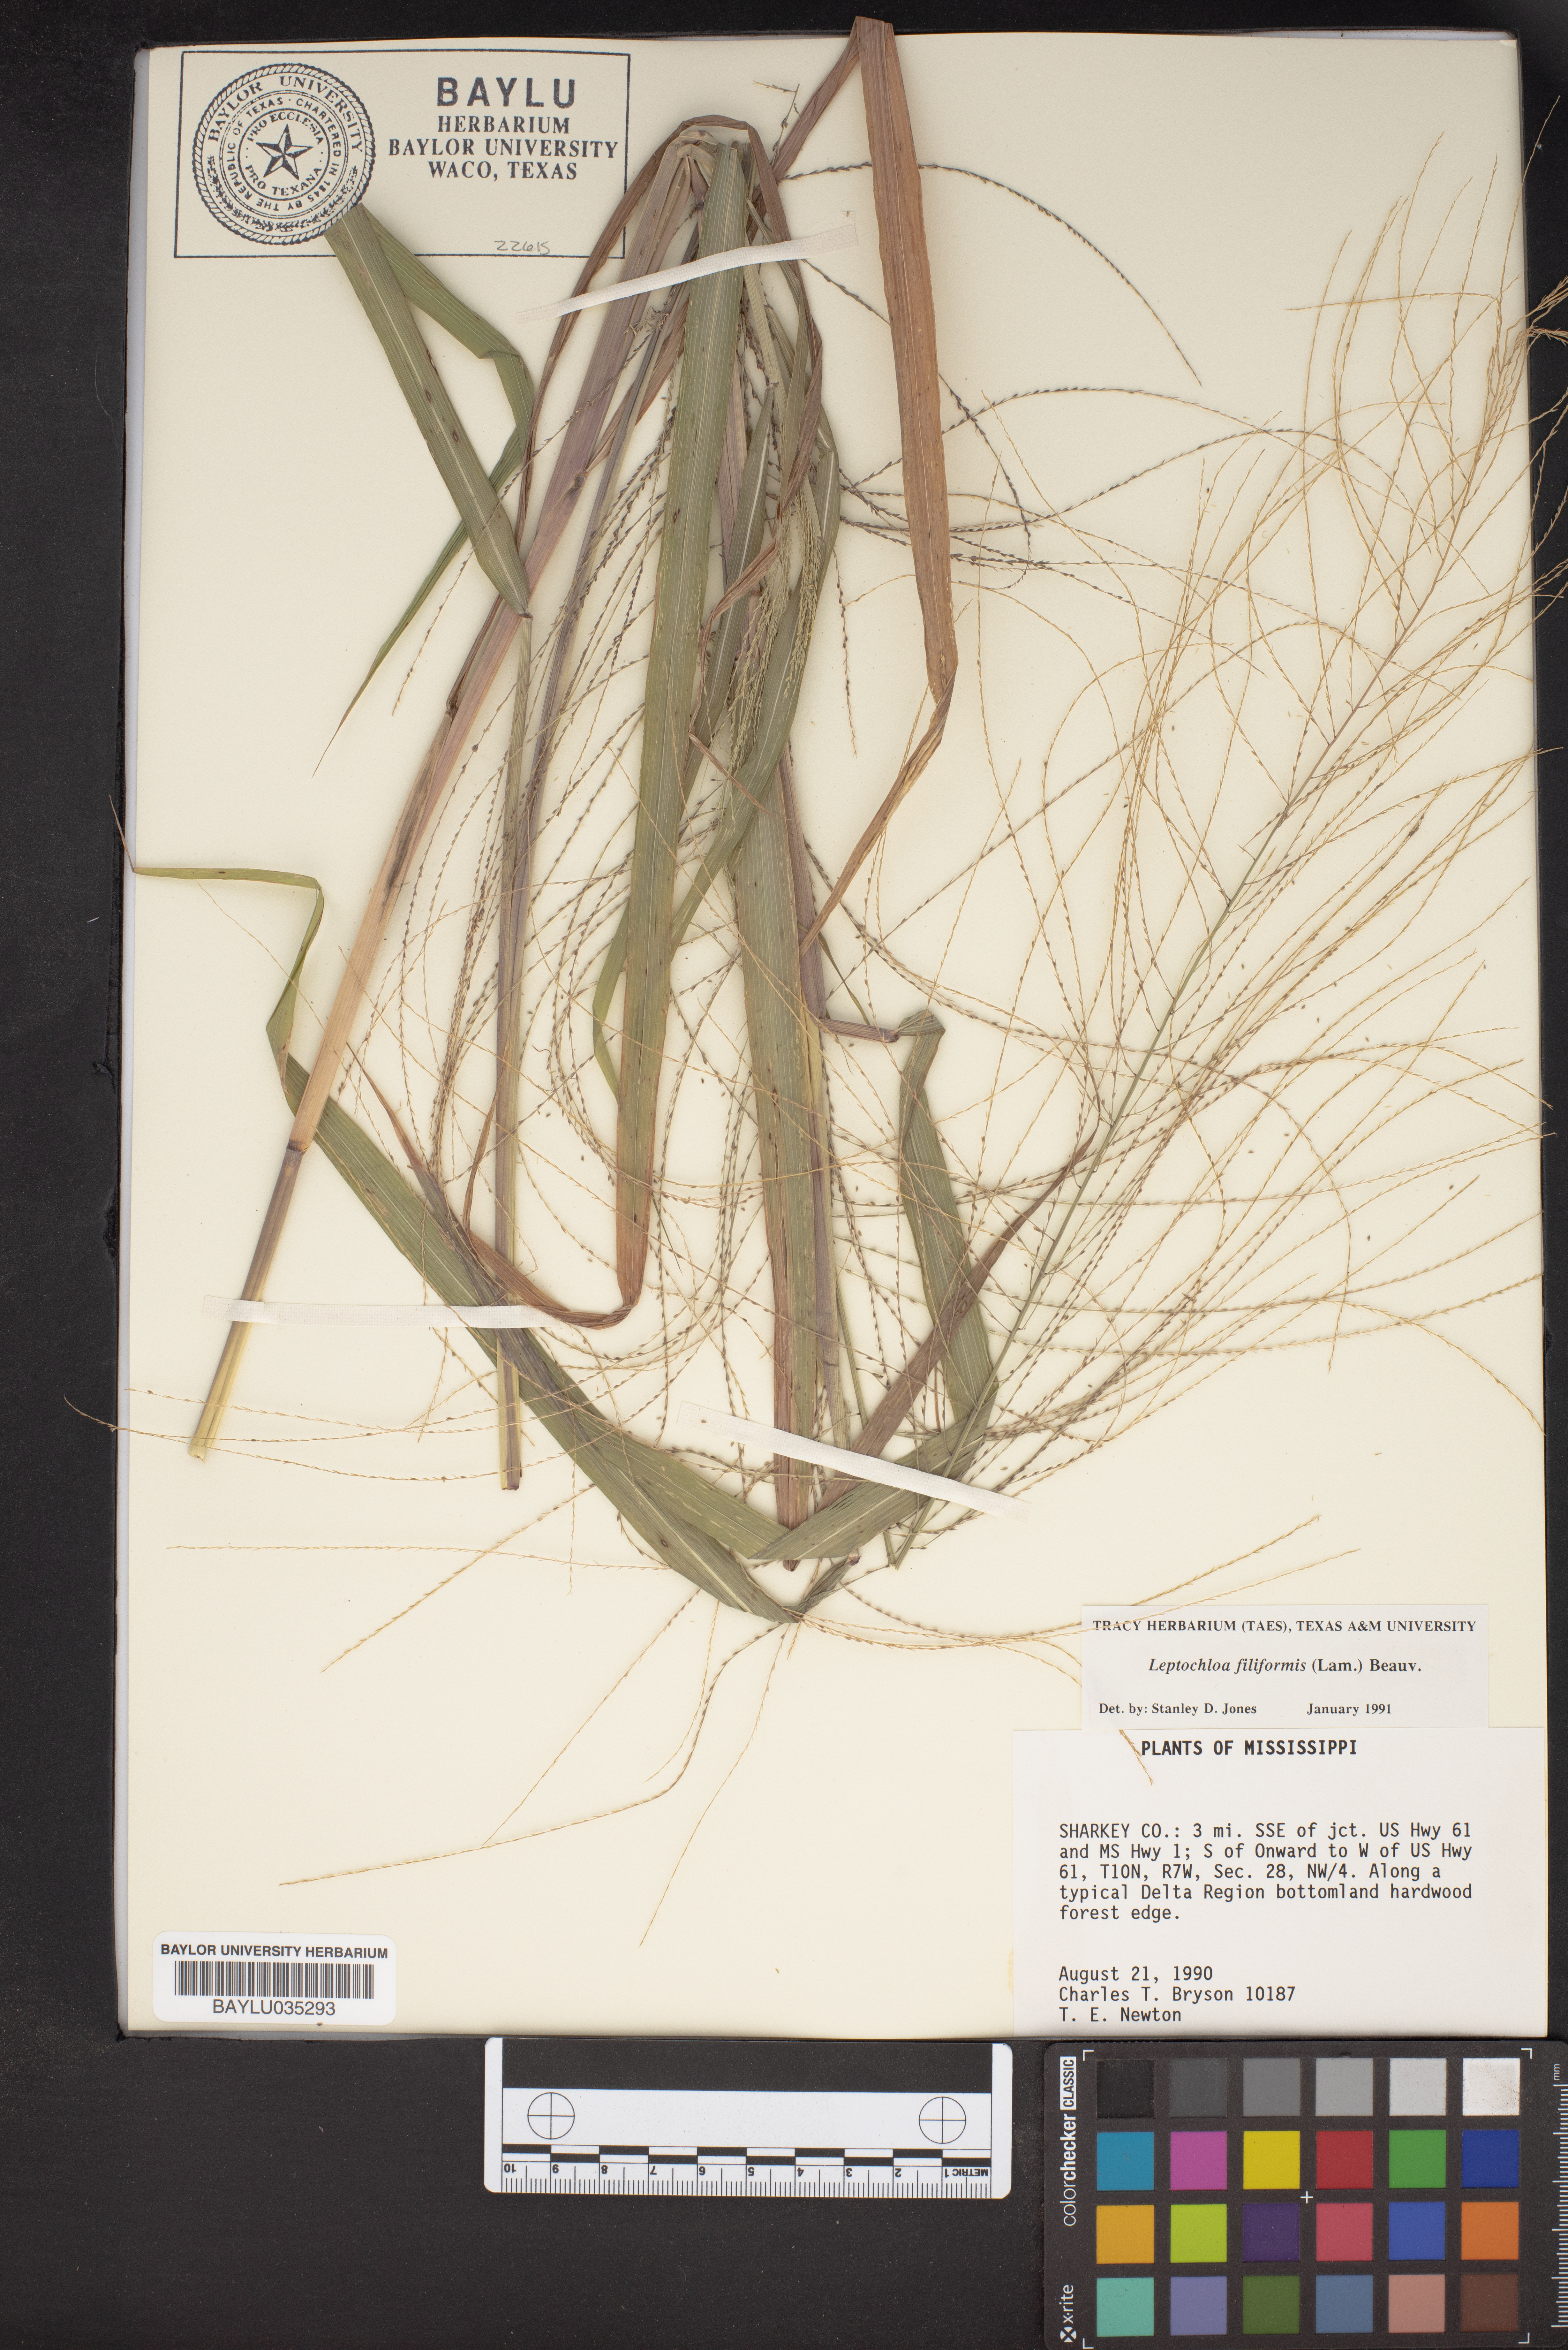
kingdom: Plantae
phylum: Tracheophyta
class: Liliopsida
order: Poales
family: Poaceae
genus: Leptochloa
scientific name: Leptochloa mucronata
